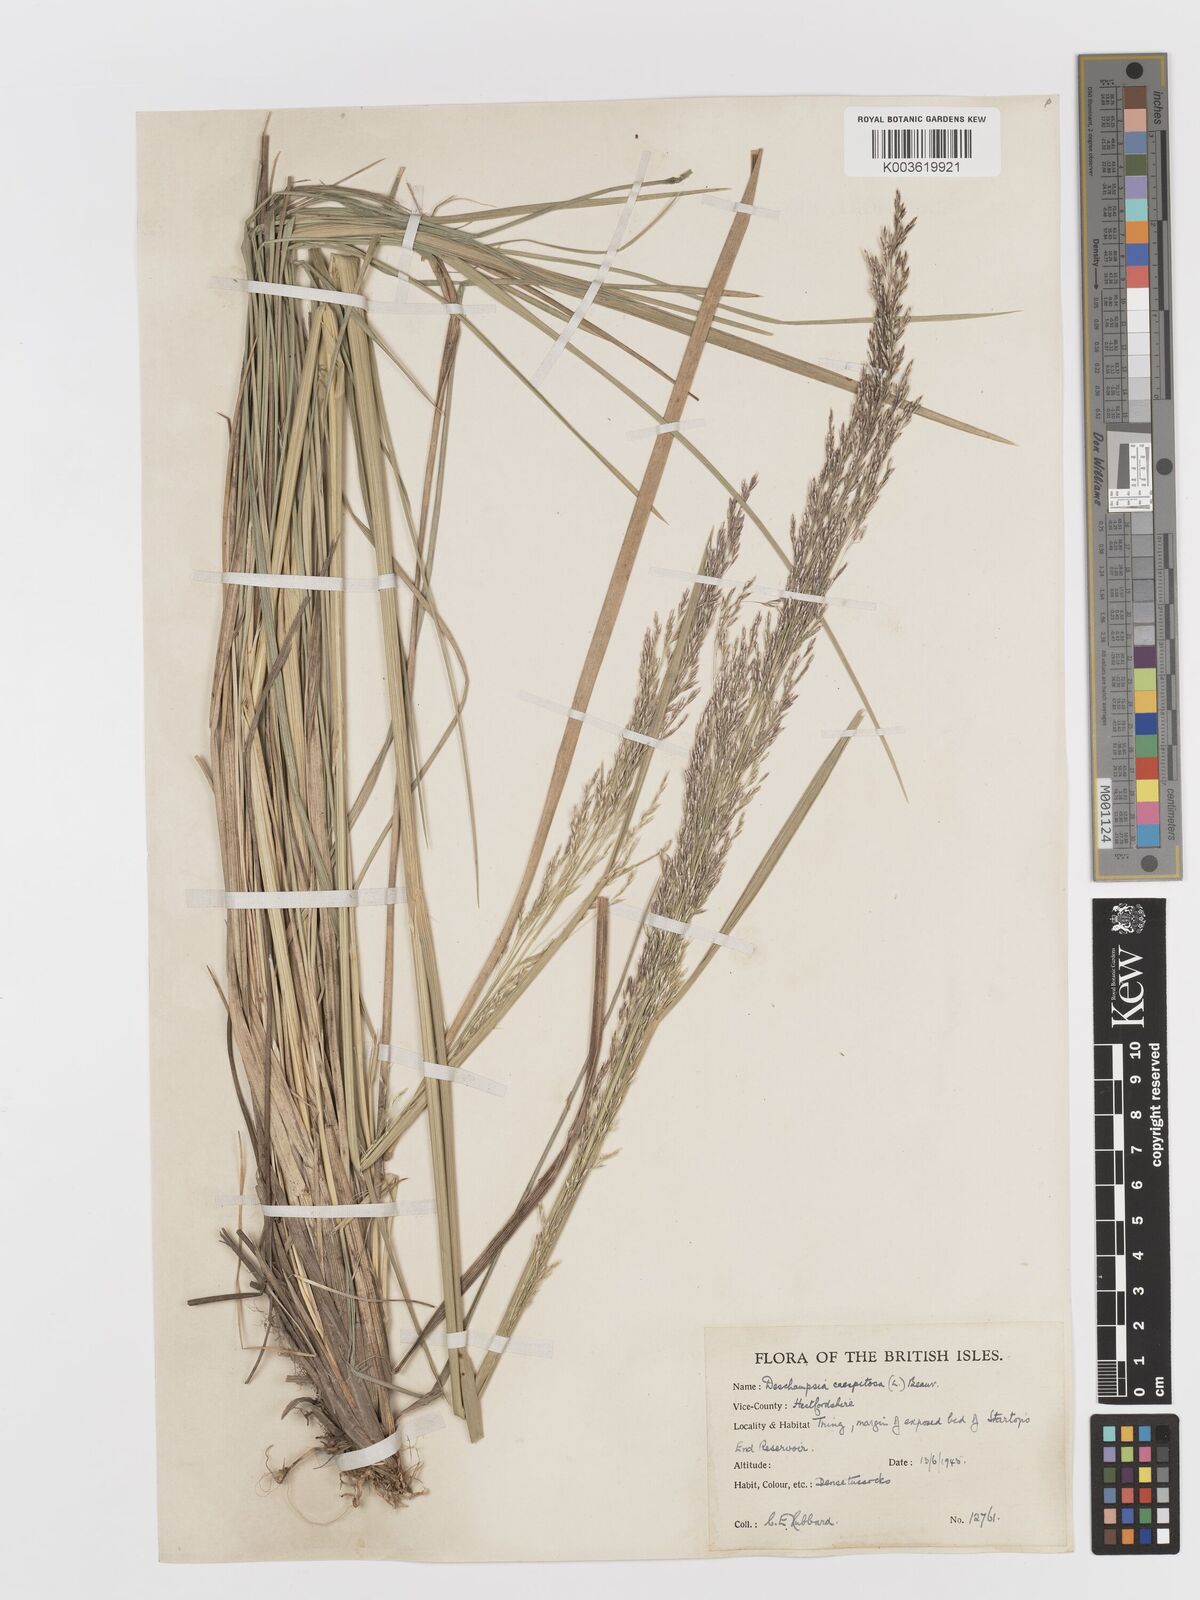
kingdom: Plantae
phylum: Tracheophyta
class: Liliopsida
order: Poales
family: Poaceae
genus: Deschampsia
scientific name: Deschampsia cespitosa
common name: Tufted hair-grass
